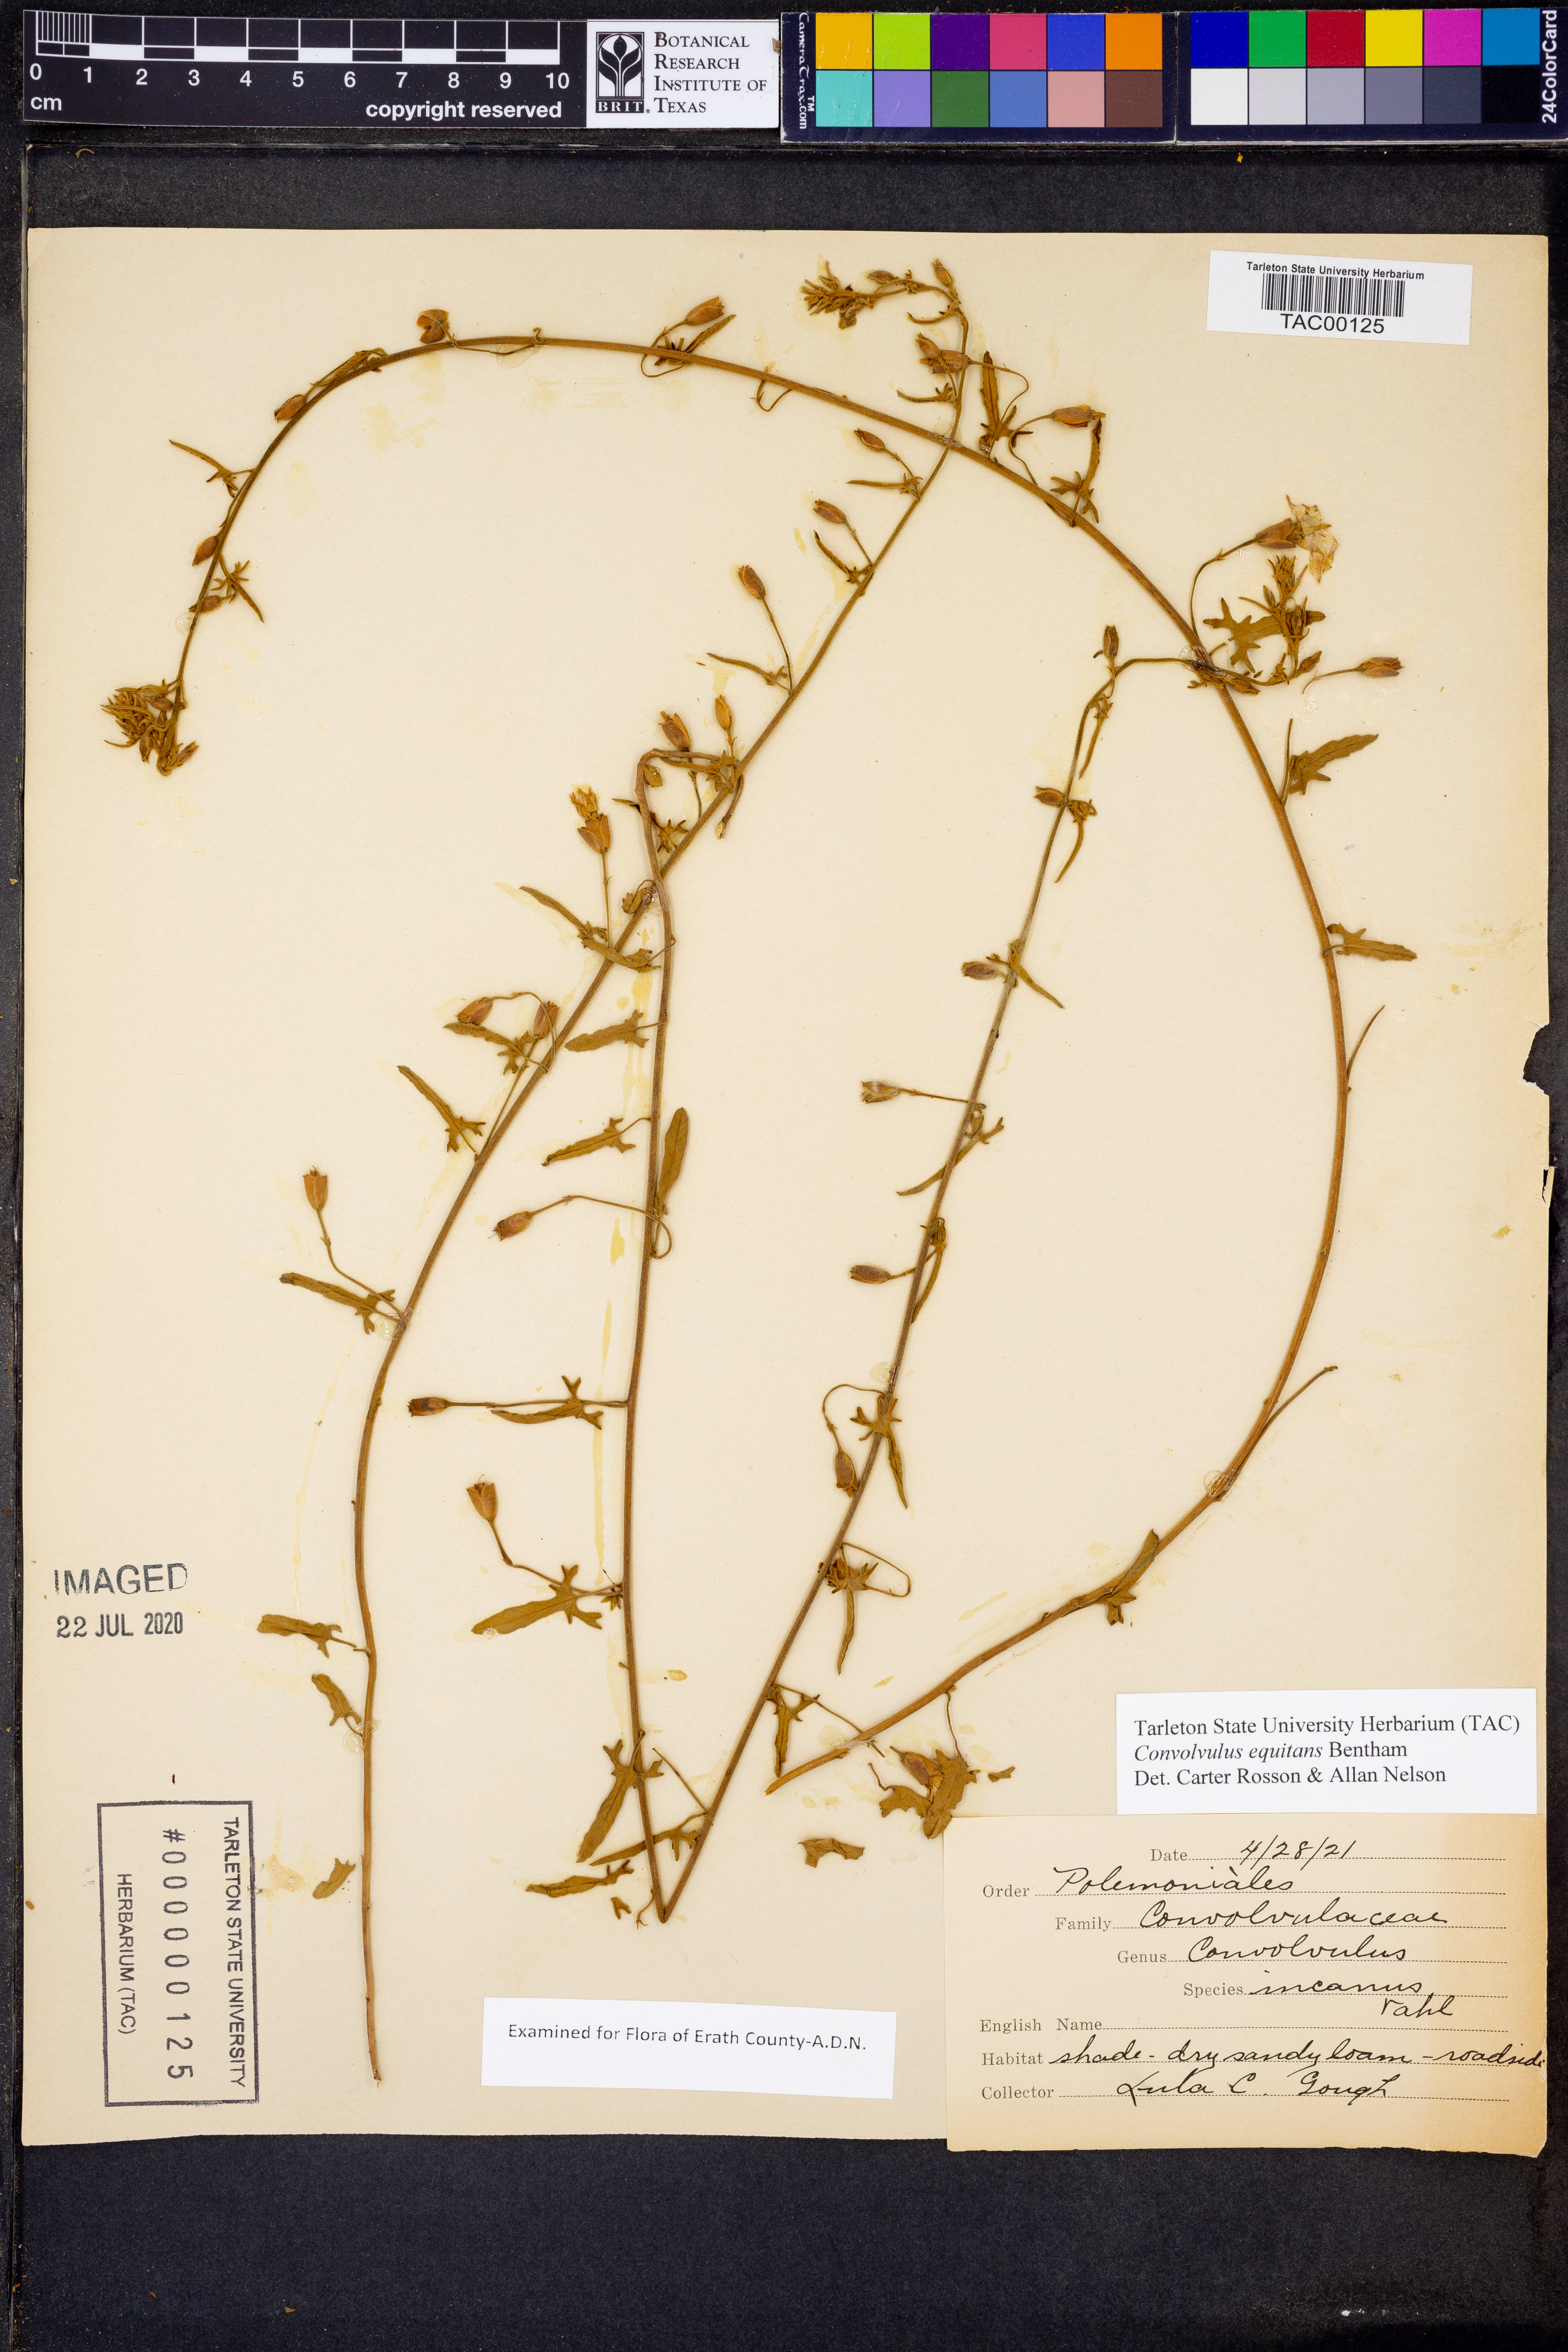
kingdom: Plantae
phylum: Tracheophyta
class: Magnoliopsida
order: Solanales
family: Convolvulaceae
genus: Convolvulus
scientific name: Convolvulus equitans
